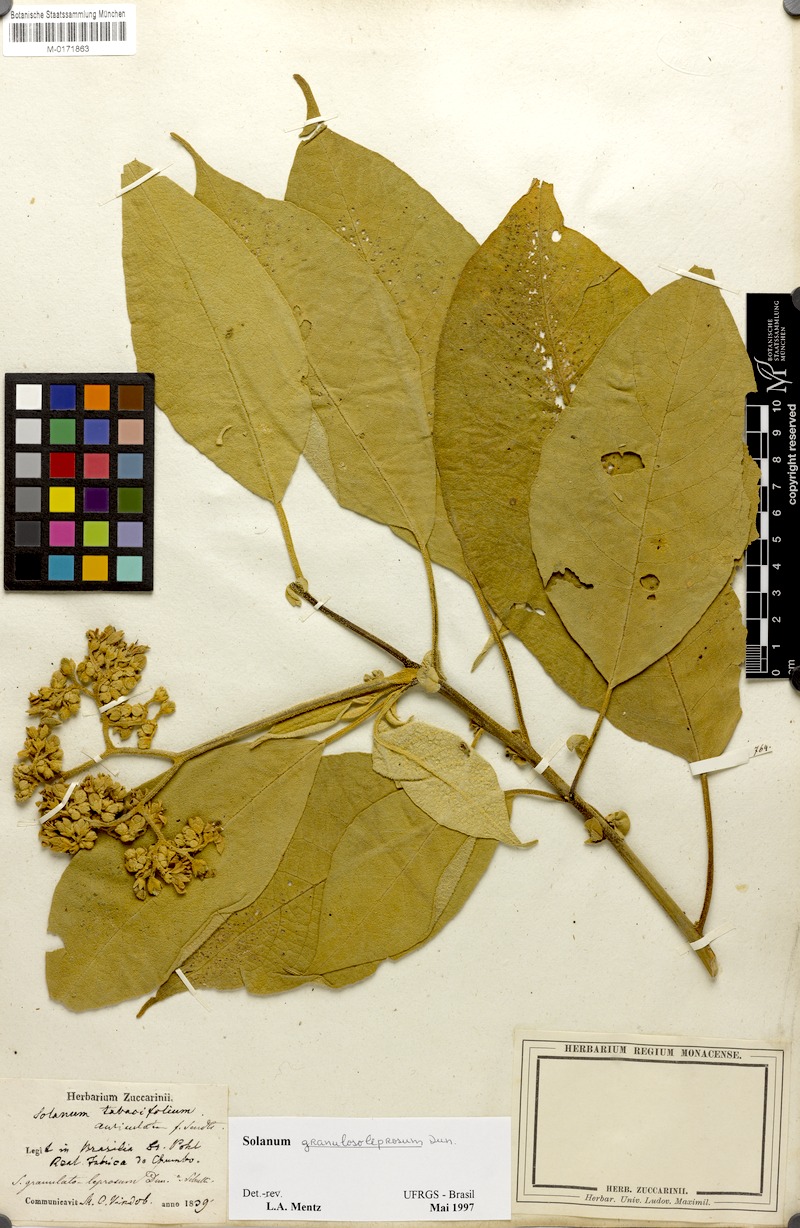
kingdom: Plantae
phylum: Tracheophyta
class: Magnoliopsida
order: Solanales
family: Solanaceae
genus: Solanum
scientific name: Solanum granulosoleprosum
